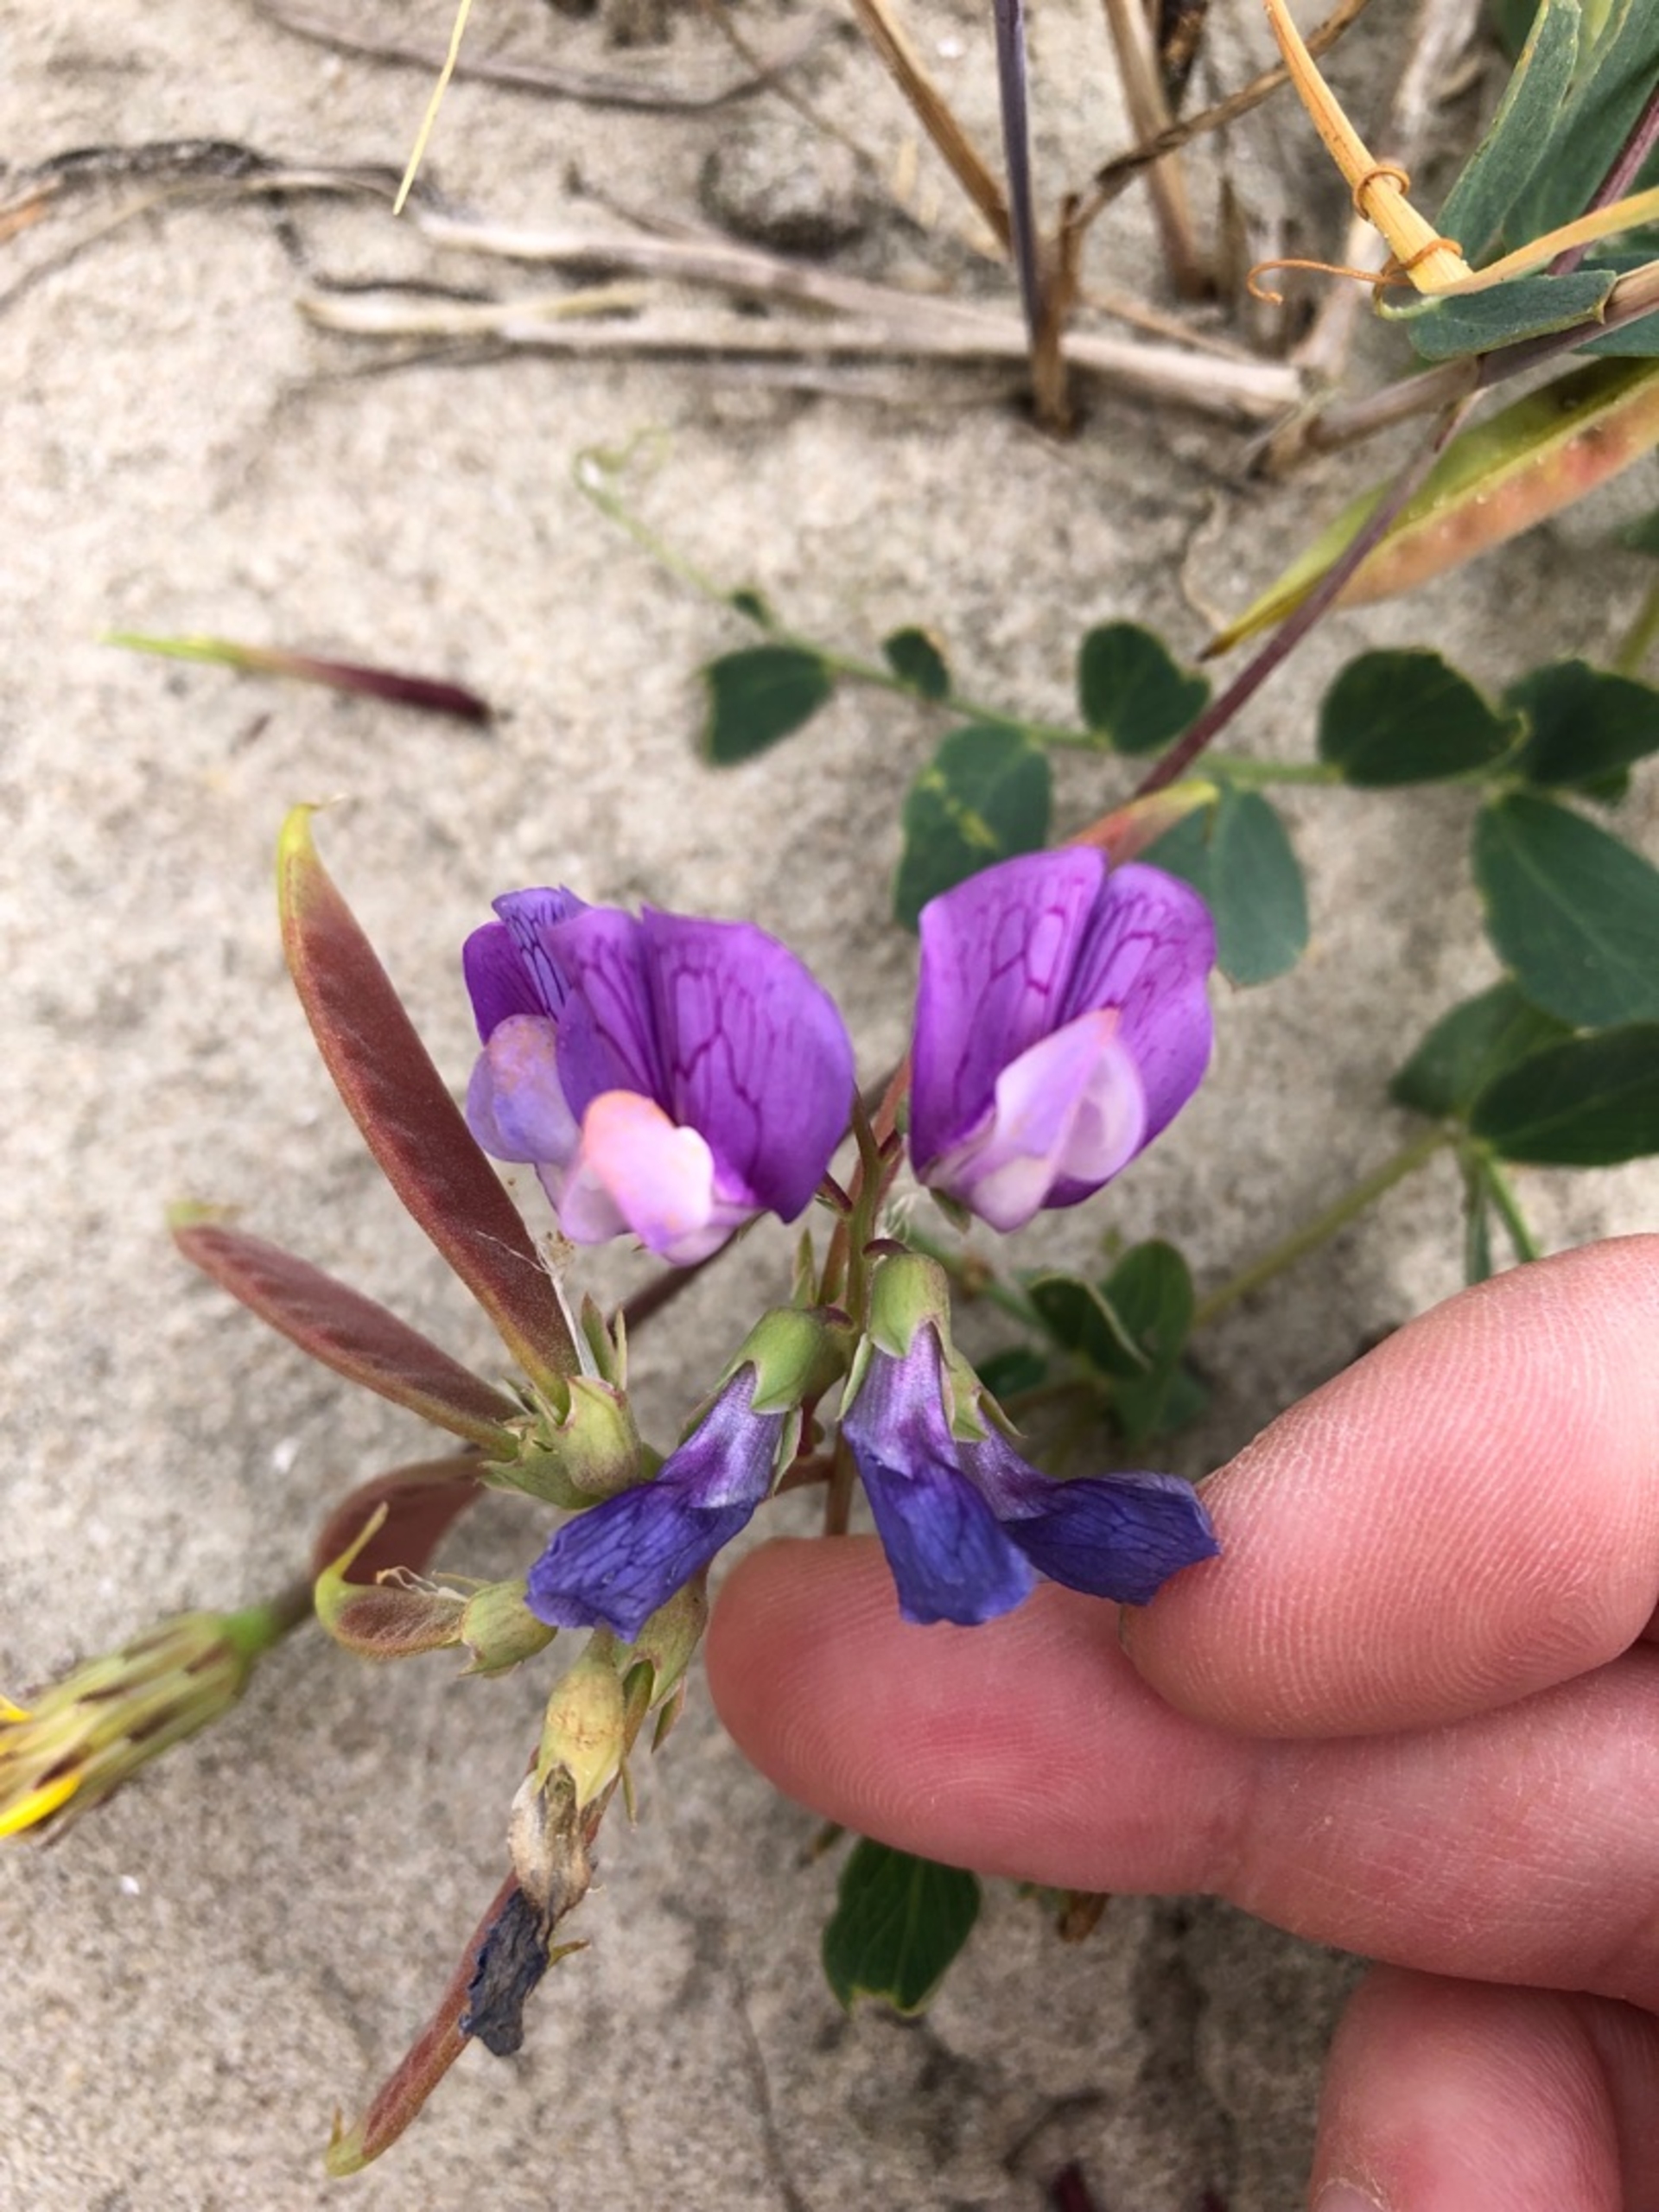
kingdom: Plantae
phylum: Tracheophyta
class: Magnoliopsida
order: Fabales
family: Fabaceae
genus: Lathyrus
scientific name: Lathyrus japonicus
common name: Klit-fladbælg
